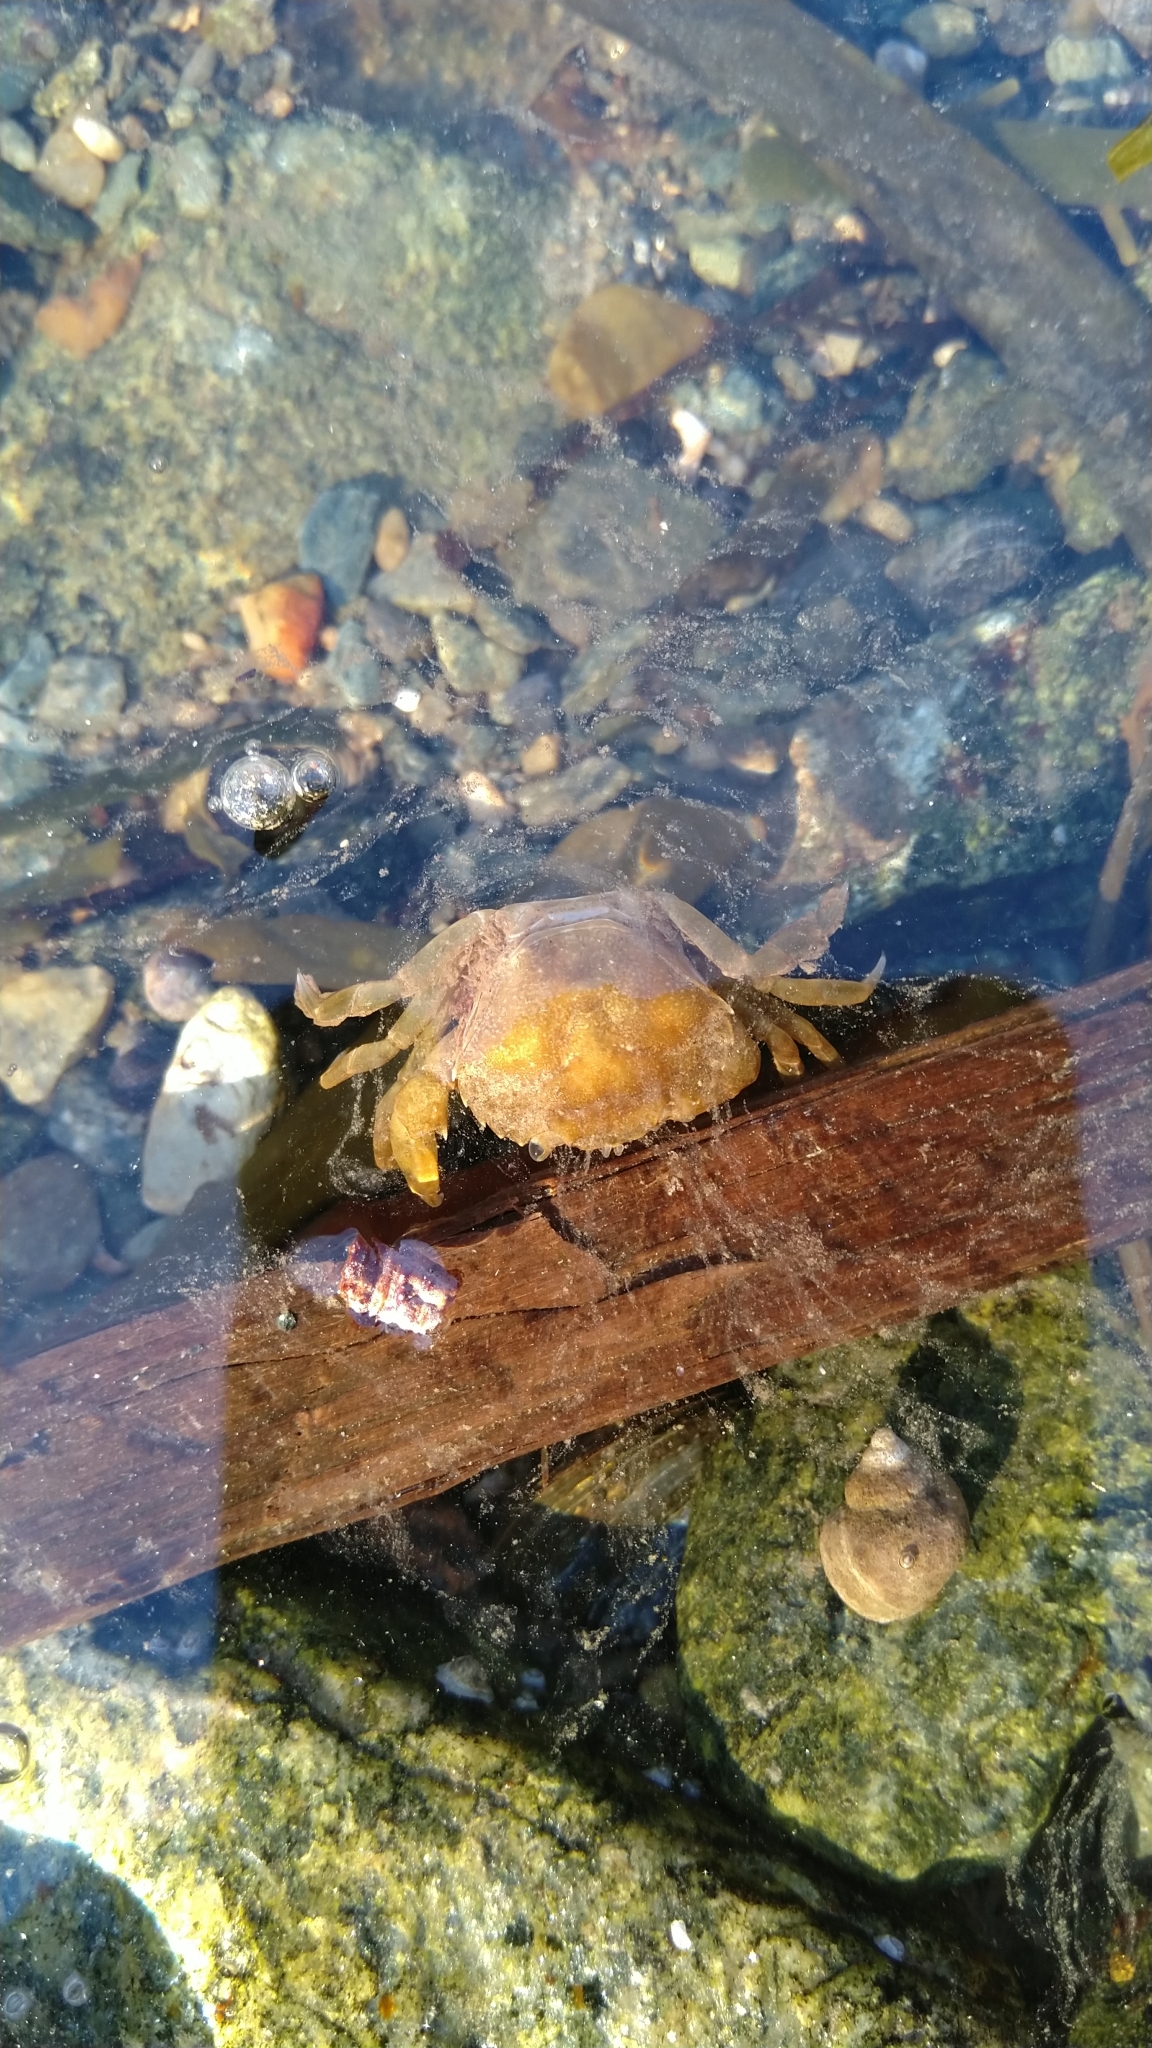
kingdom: Animalia
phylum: Arthropoda
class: Malacostraca
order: Decapoda
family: Carcinidae
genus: Carcinus
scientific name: Carcinus maenas
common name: European green crab
